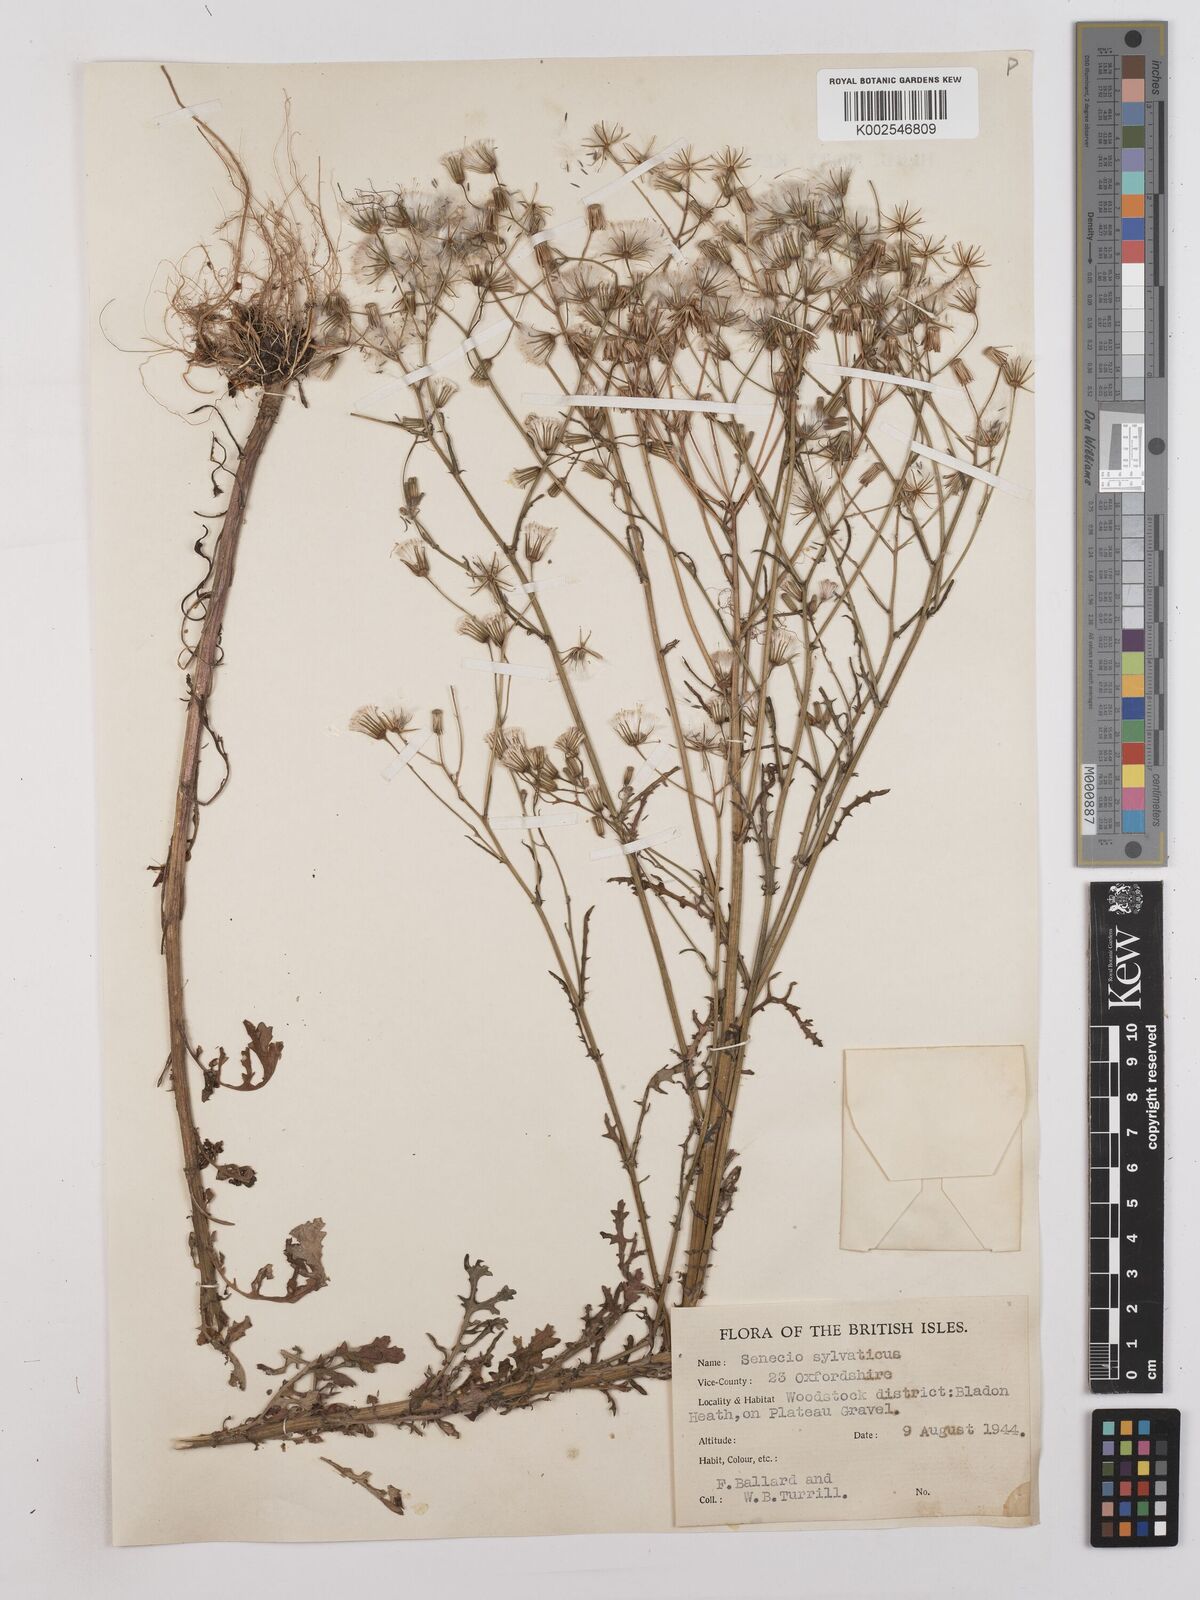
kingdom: Plantae
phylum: Tracheophyta
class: Magnoliopsida
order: Asterales
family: Asteraceae
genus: Senecio
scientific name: Senecio sylvaticus
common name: Woodland ragwort
